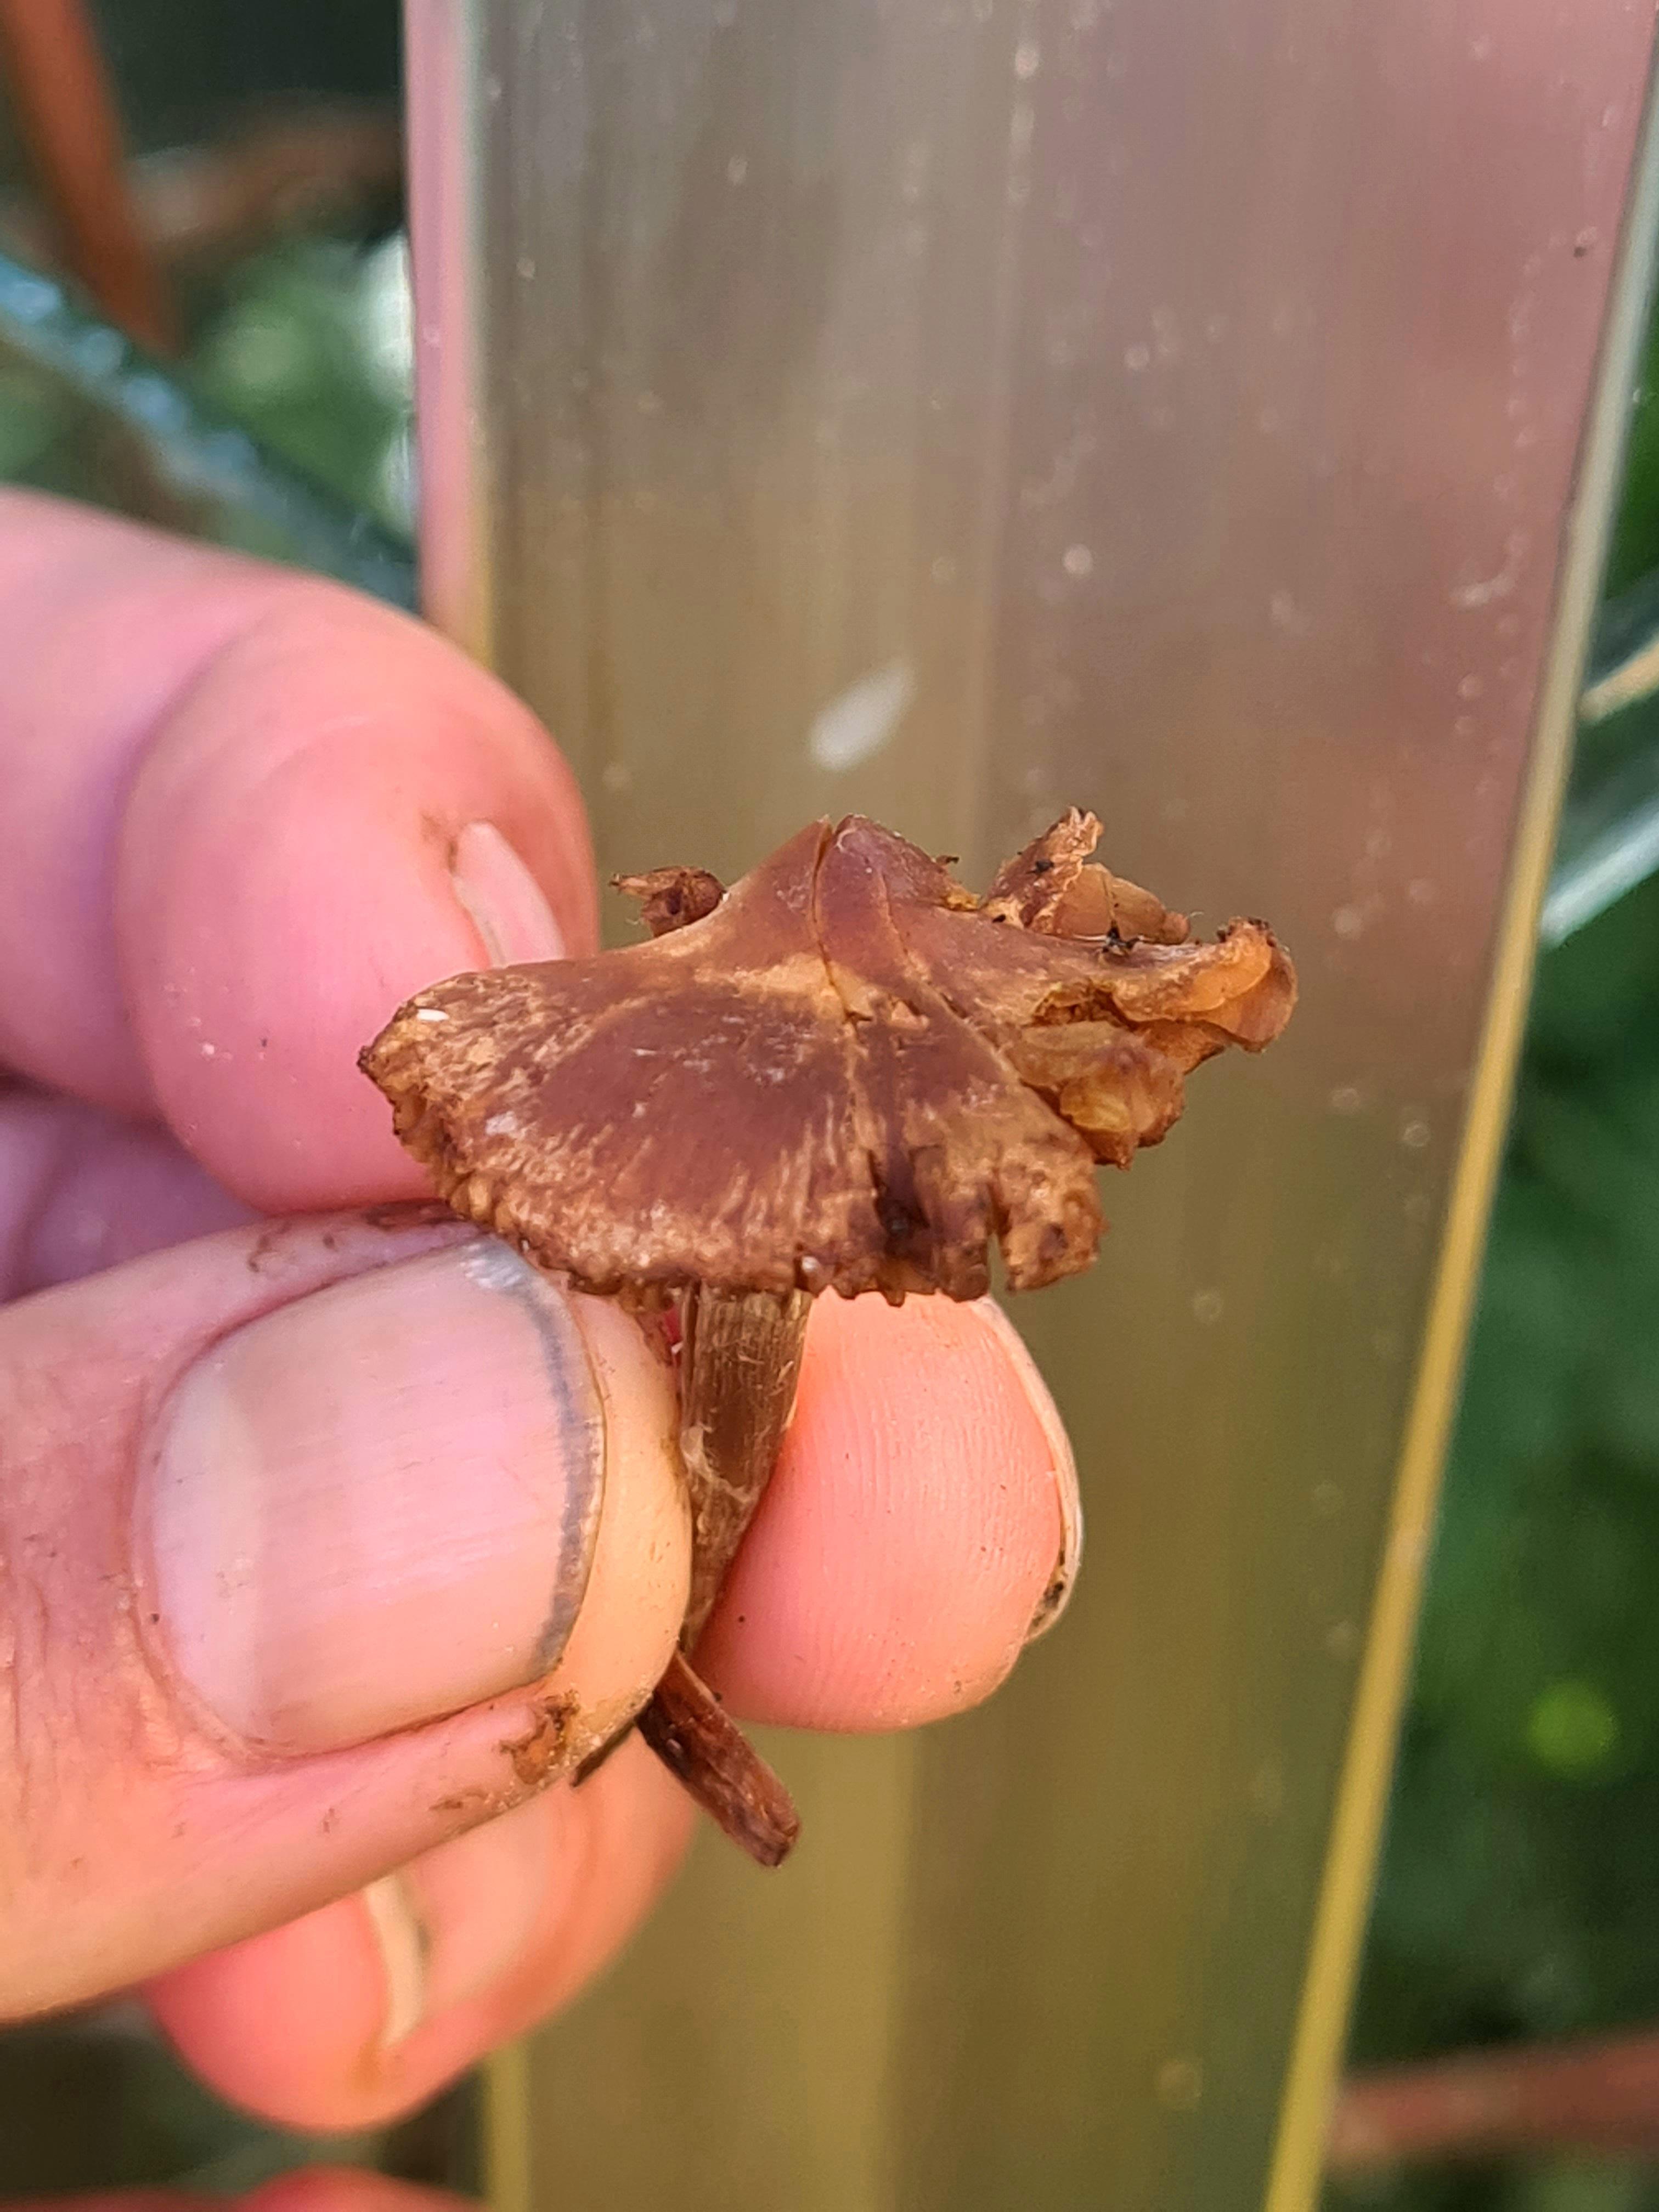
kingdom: Fungi
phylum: Basidiomycota
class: Agaricomycetes
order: Agaricales
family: Cortinariaceae
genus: Cortinarius
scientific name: Cortinarius
